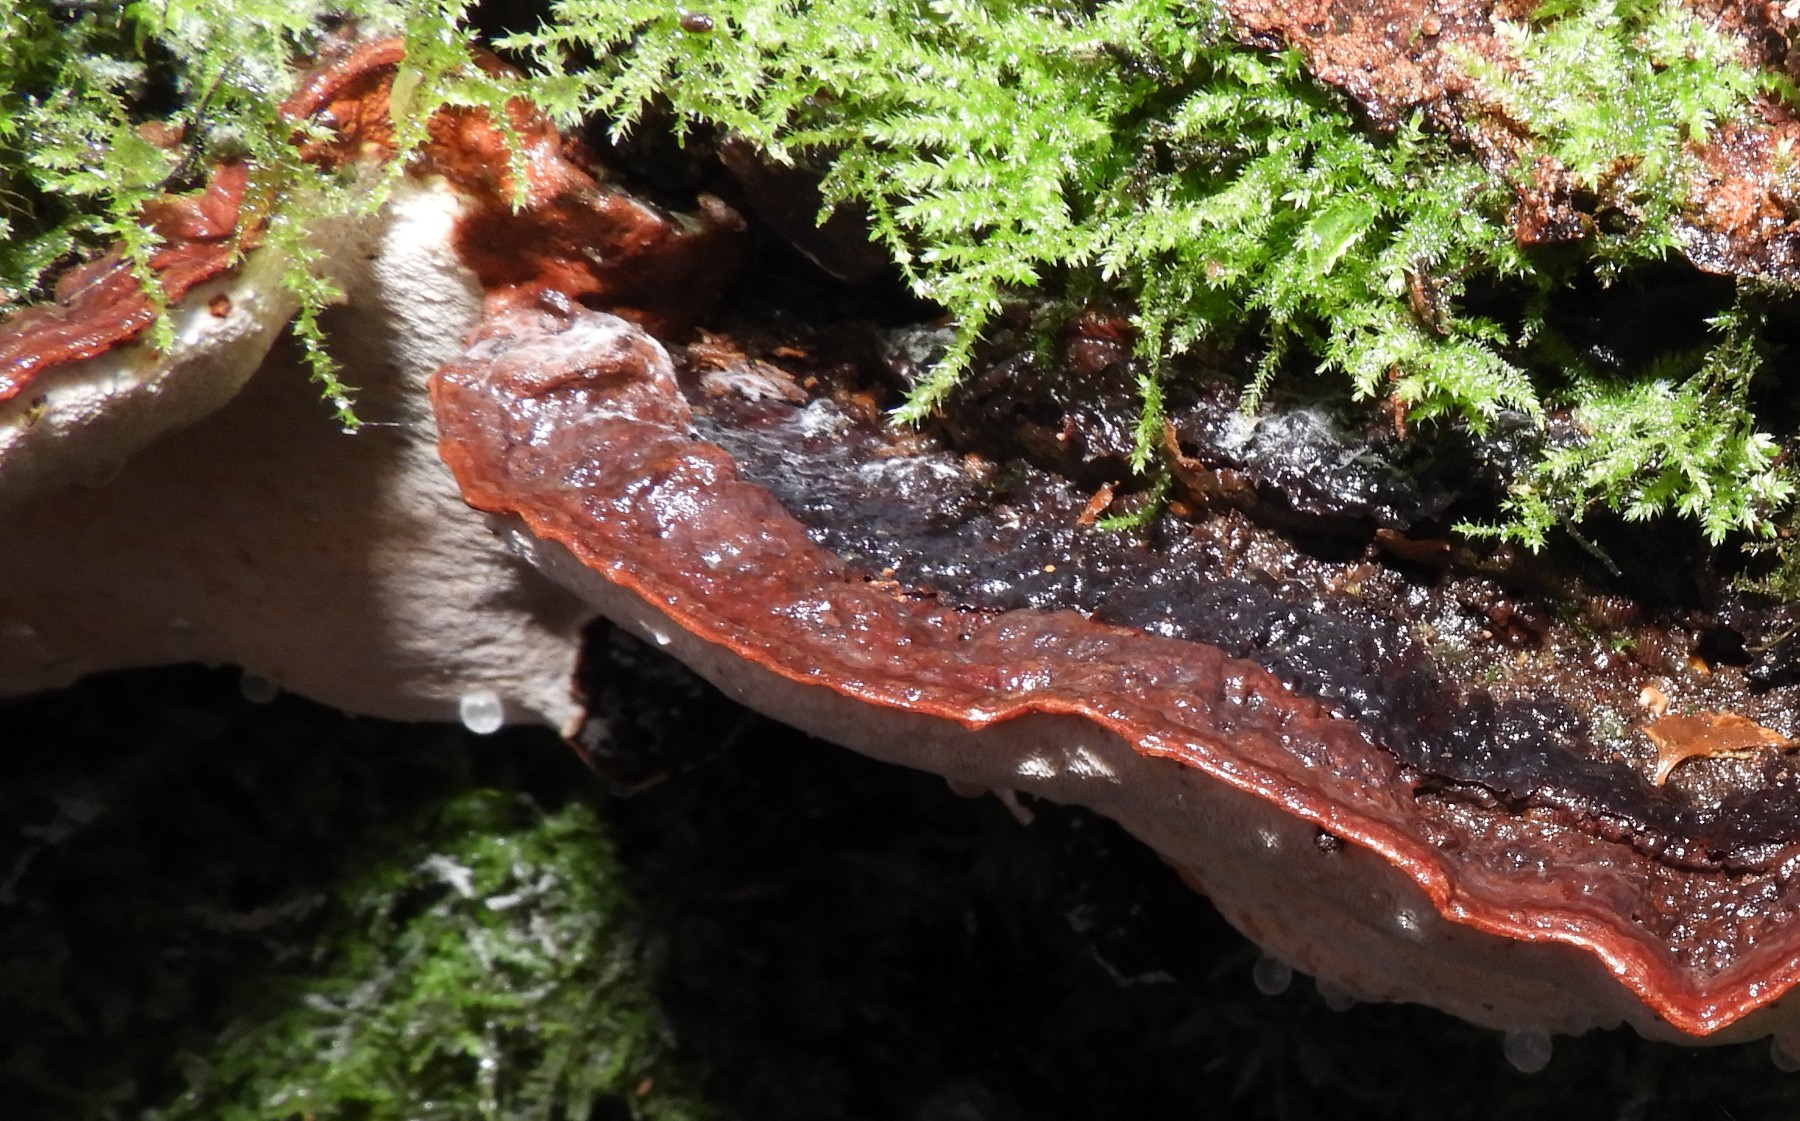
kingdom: Fungi
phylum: Basidiomycota
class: Agaricomycetes
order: Russulales
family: Bondarzewiaceae
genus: Heterobasidion
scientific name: Heterobasidion annosum
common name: almindelig rodfordærver
